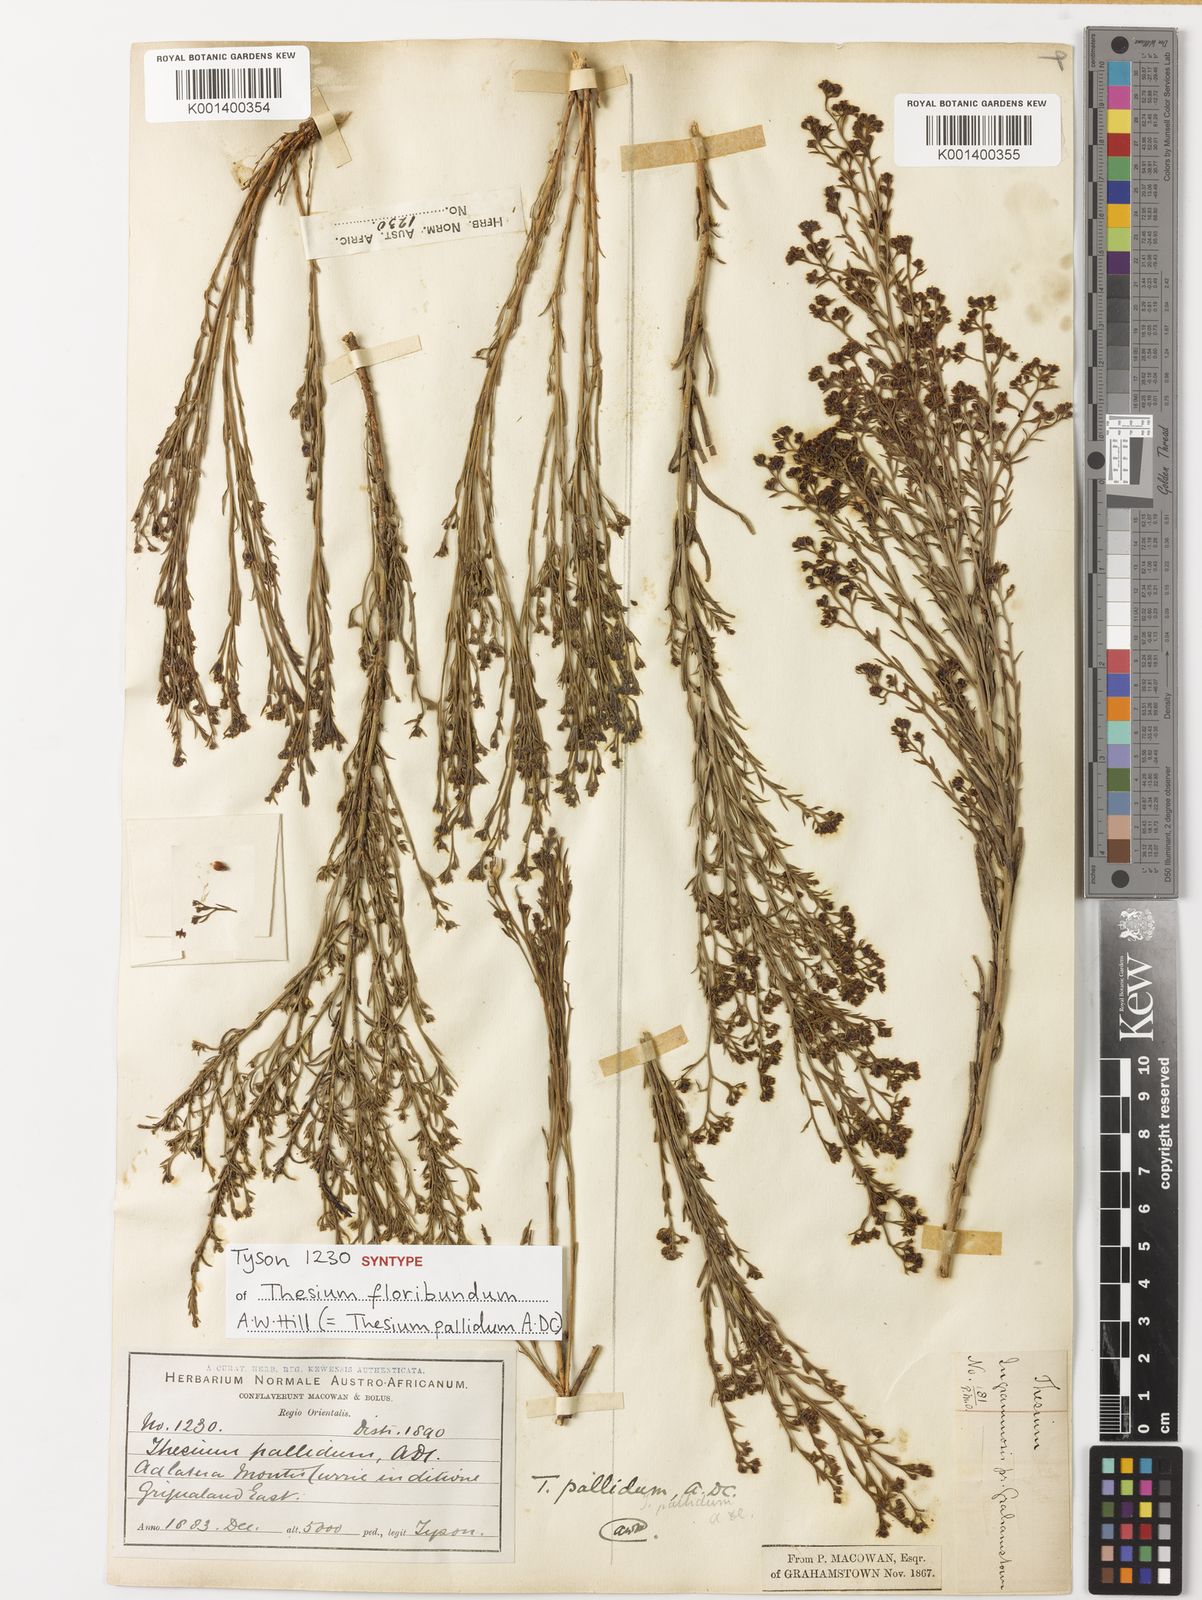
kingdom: Plantae
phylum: Tracheophyta
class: Magnoliopsida
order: Santalales
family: Thesiaceae
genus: Thesium
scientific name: Thesium pallidum
